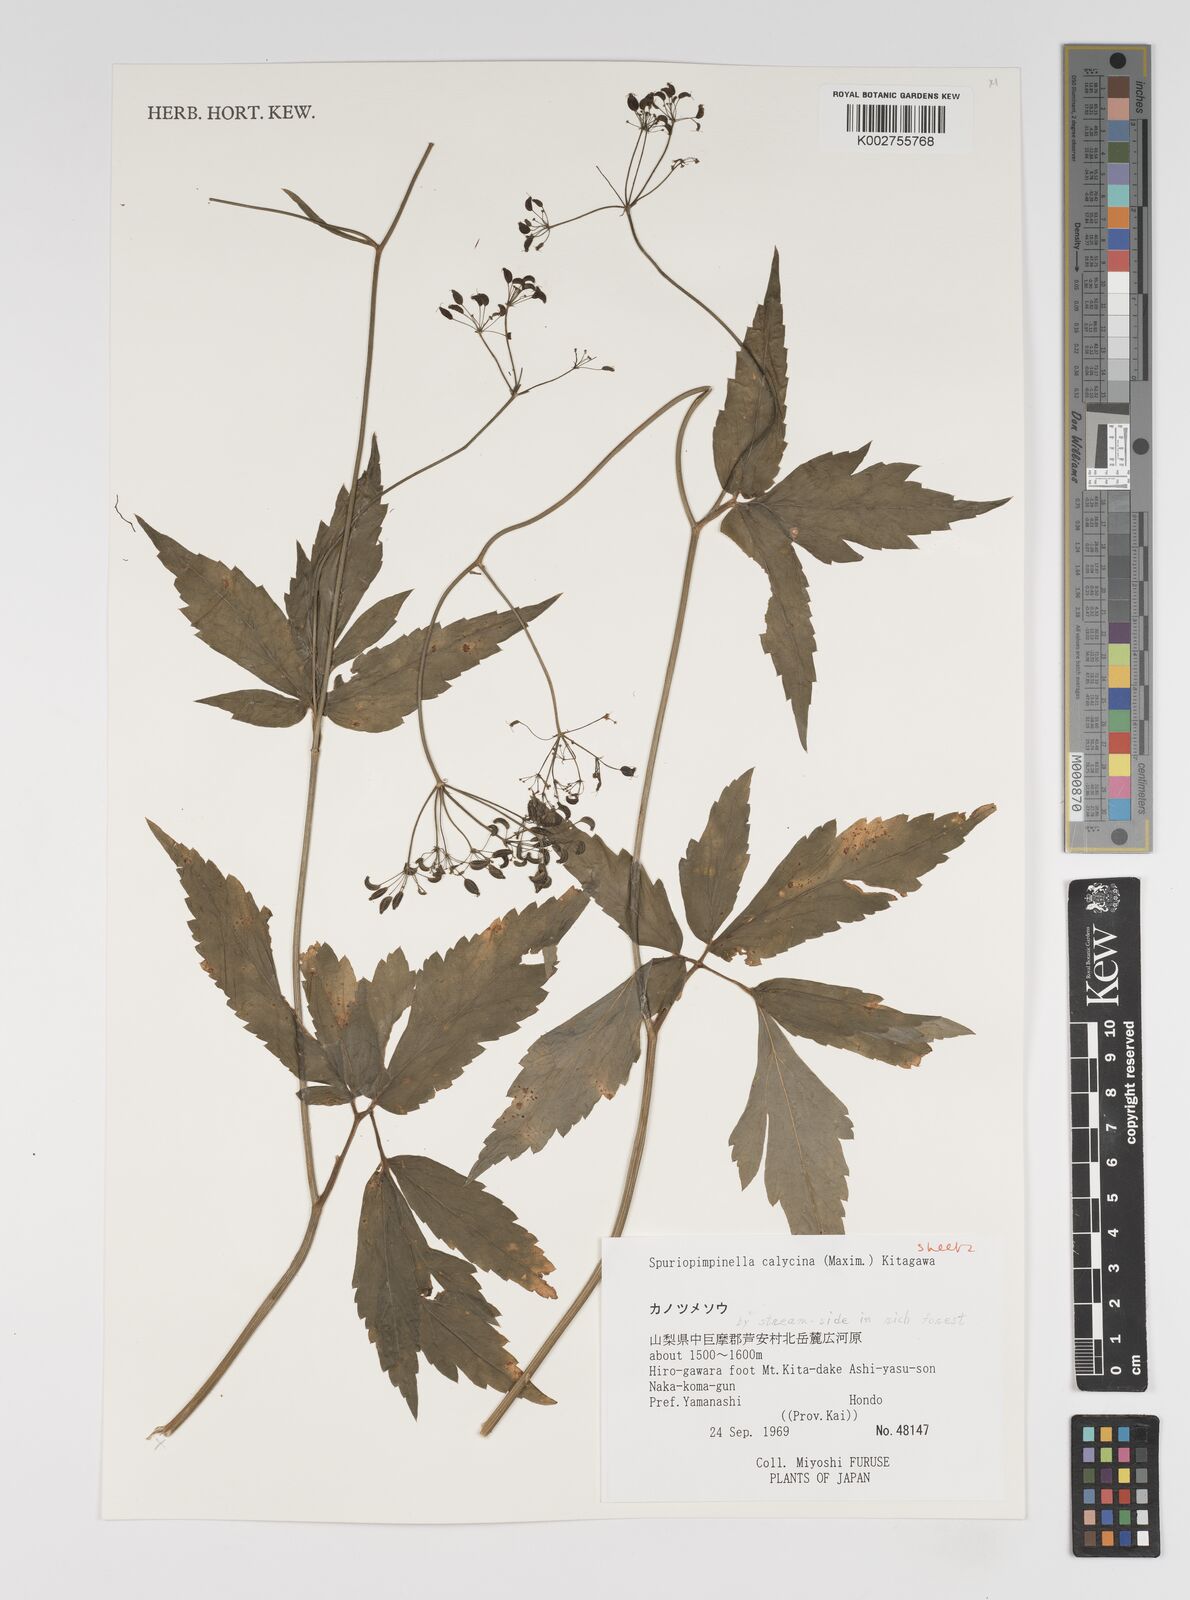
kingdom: Plantae
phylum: Tracheophyta
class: Magnoliopsida
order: Apiales
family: Apiaceae
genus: Spuriopimpinella
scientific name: Spuriopimpinella calycina
